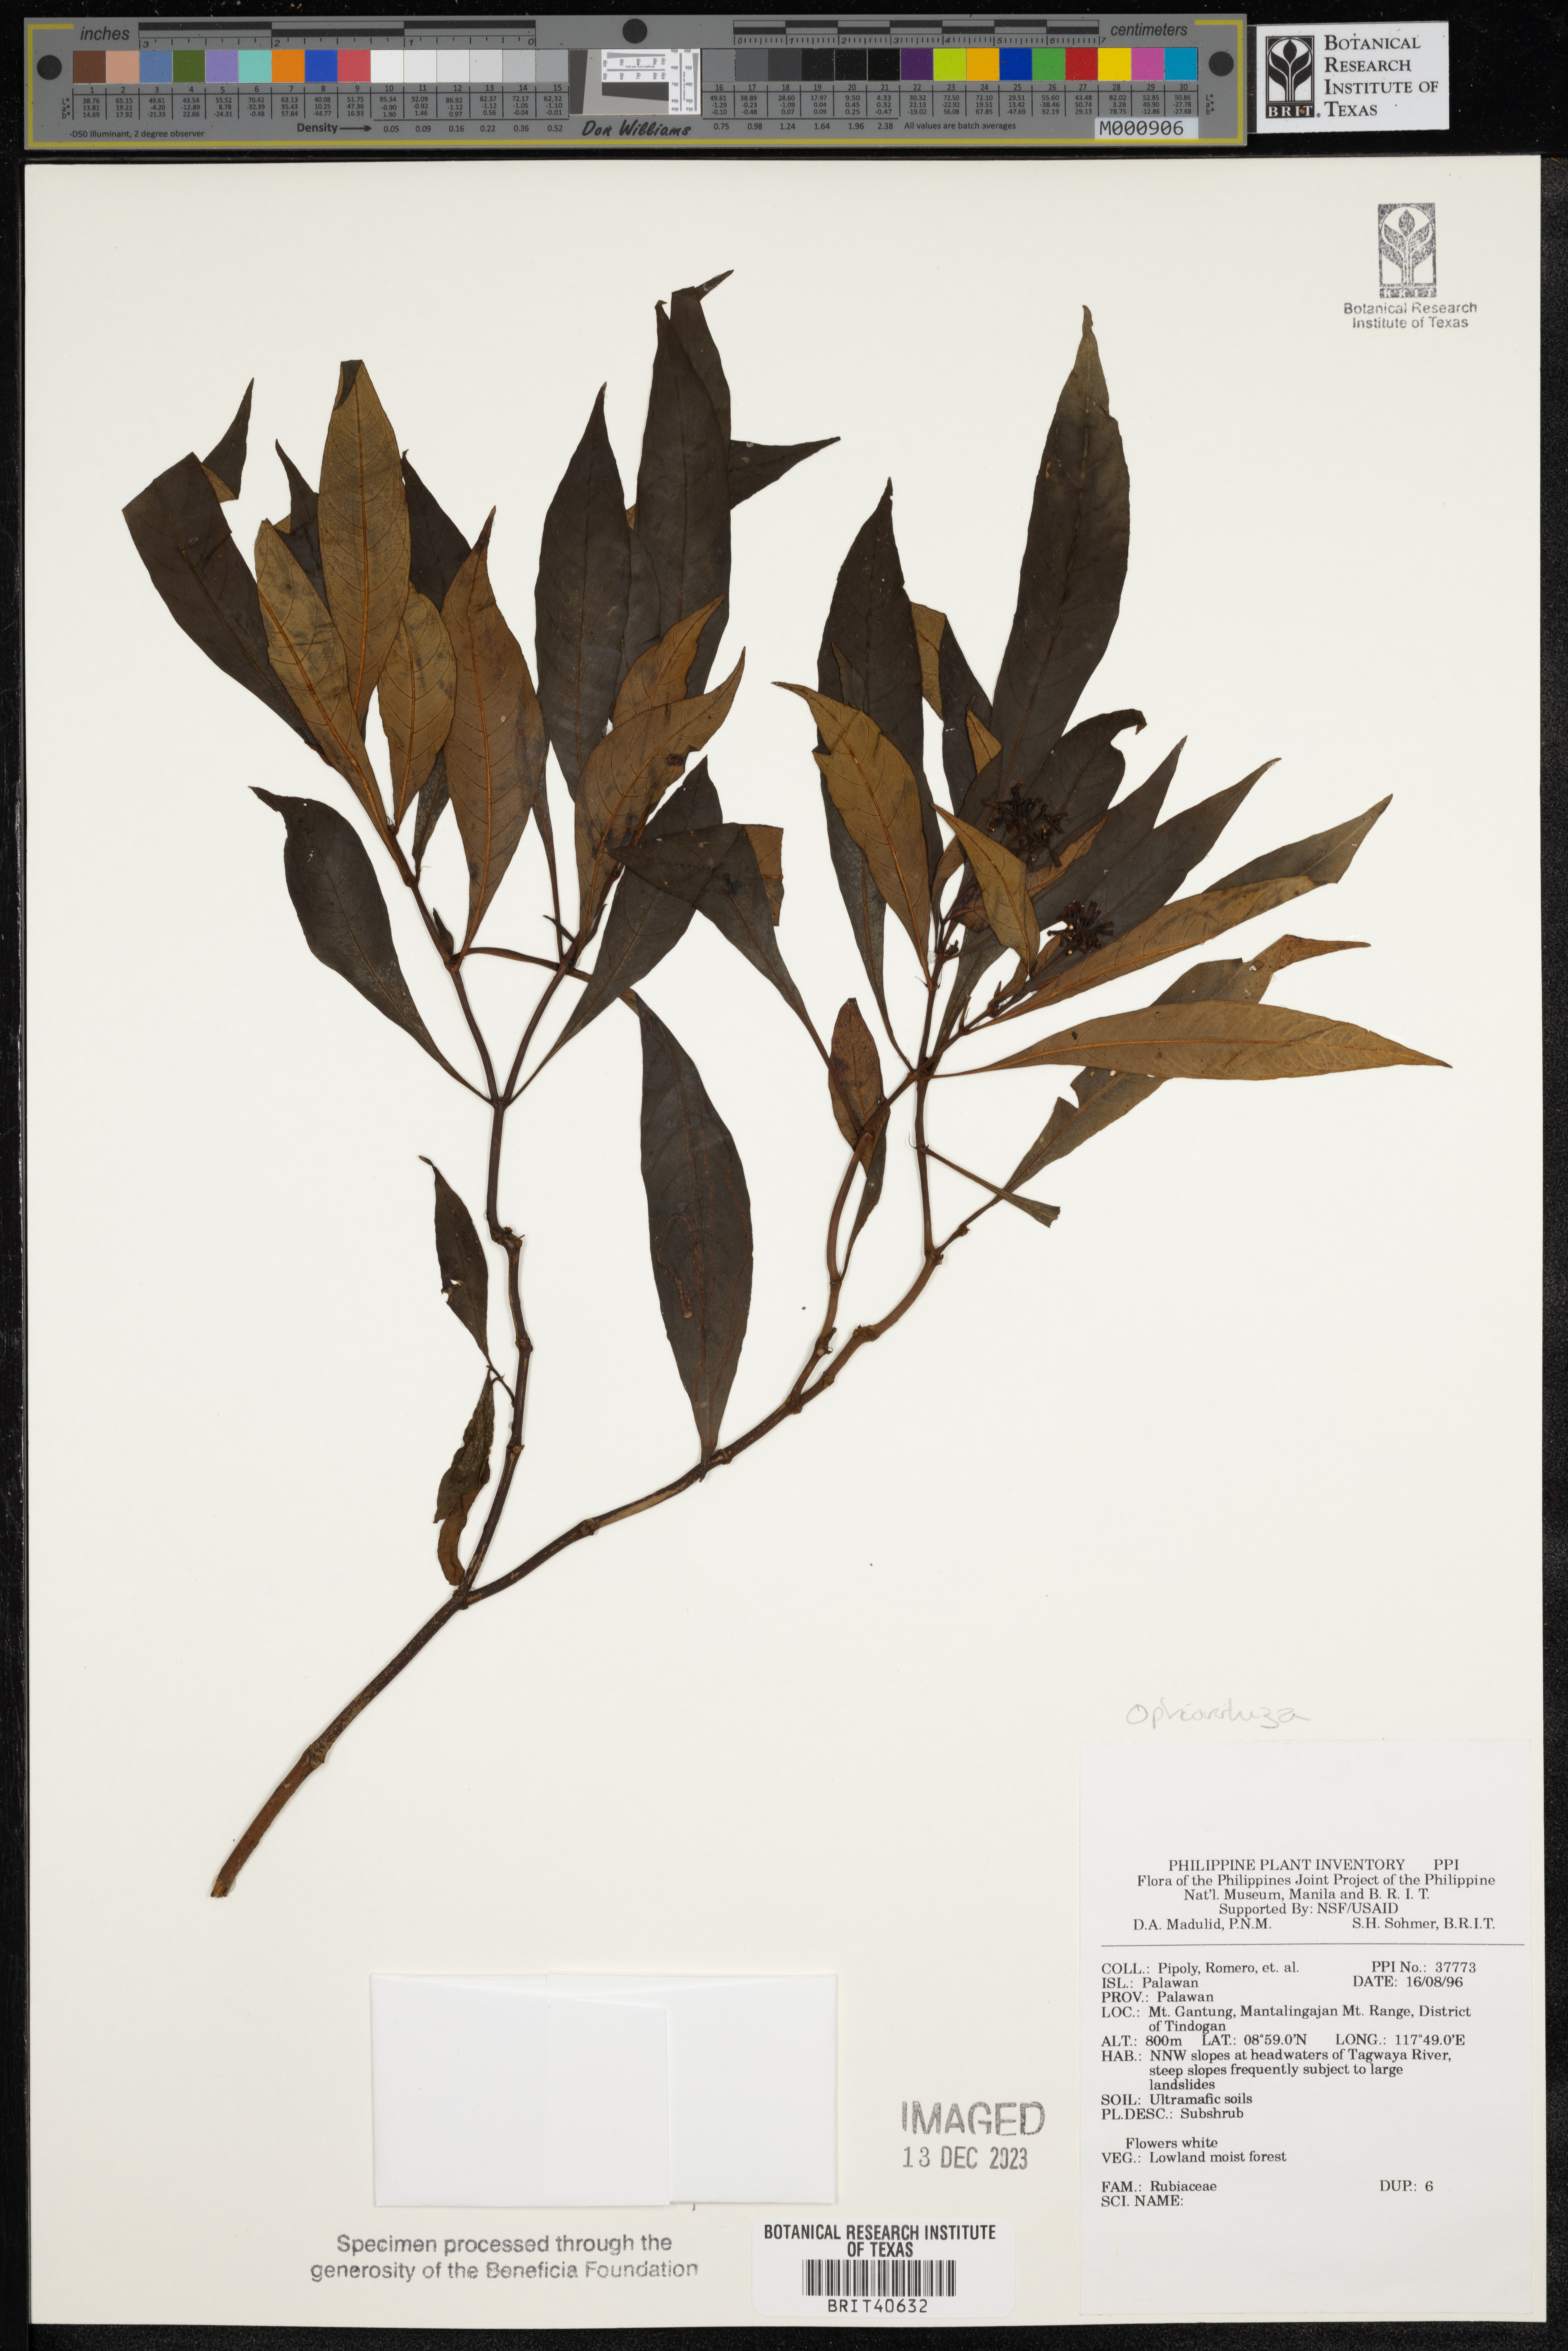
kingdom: Plantae
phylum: Tracheophyta
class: Magnoliopsida
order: Gentianales
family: Rubiaceae
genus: Ophiorrhiza
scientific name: Ophiorrhiza
